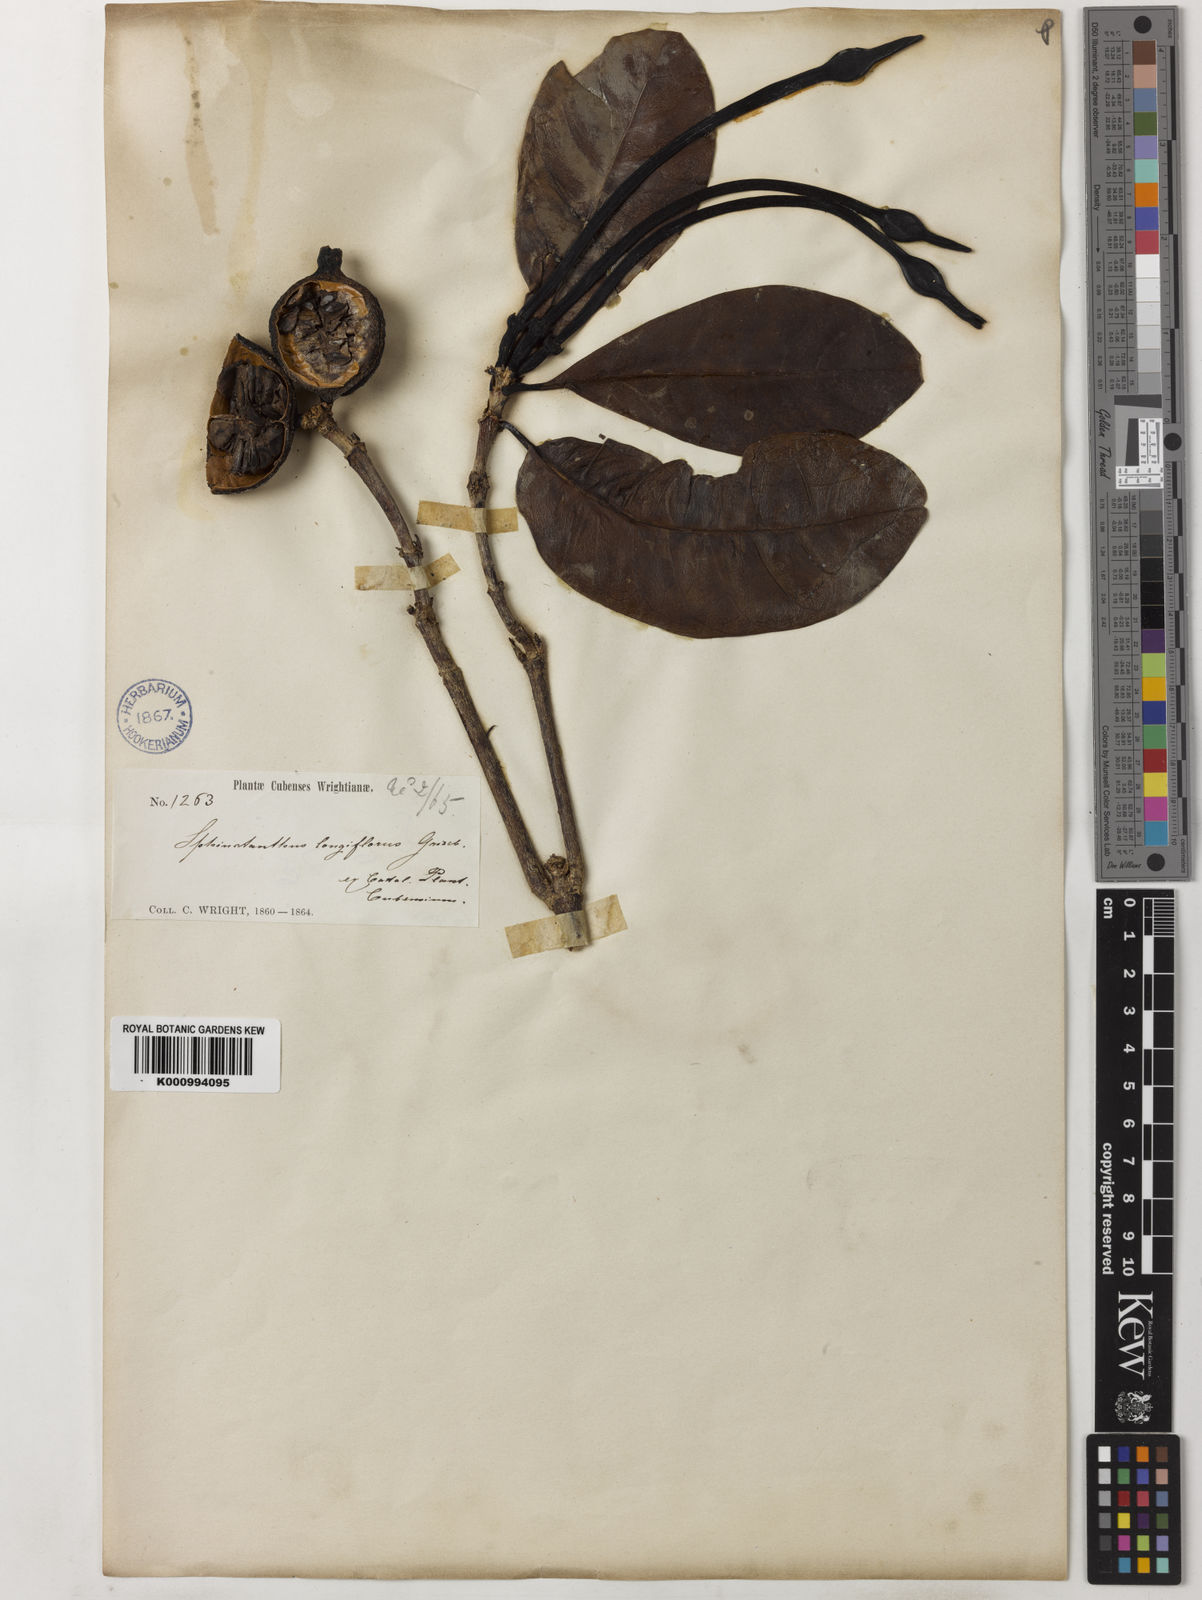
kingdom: Plantae
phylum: Tracheophyta
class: Magnoliopsida
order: Gentianales
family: Rubiaceae
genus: Tocoyena
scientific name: Tocoyena
